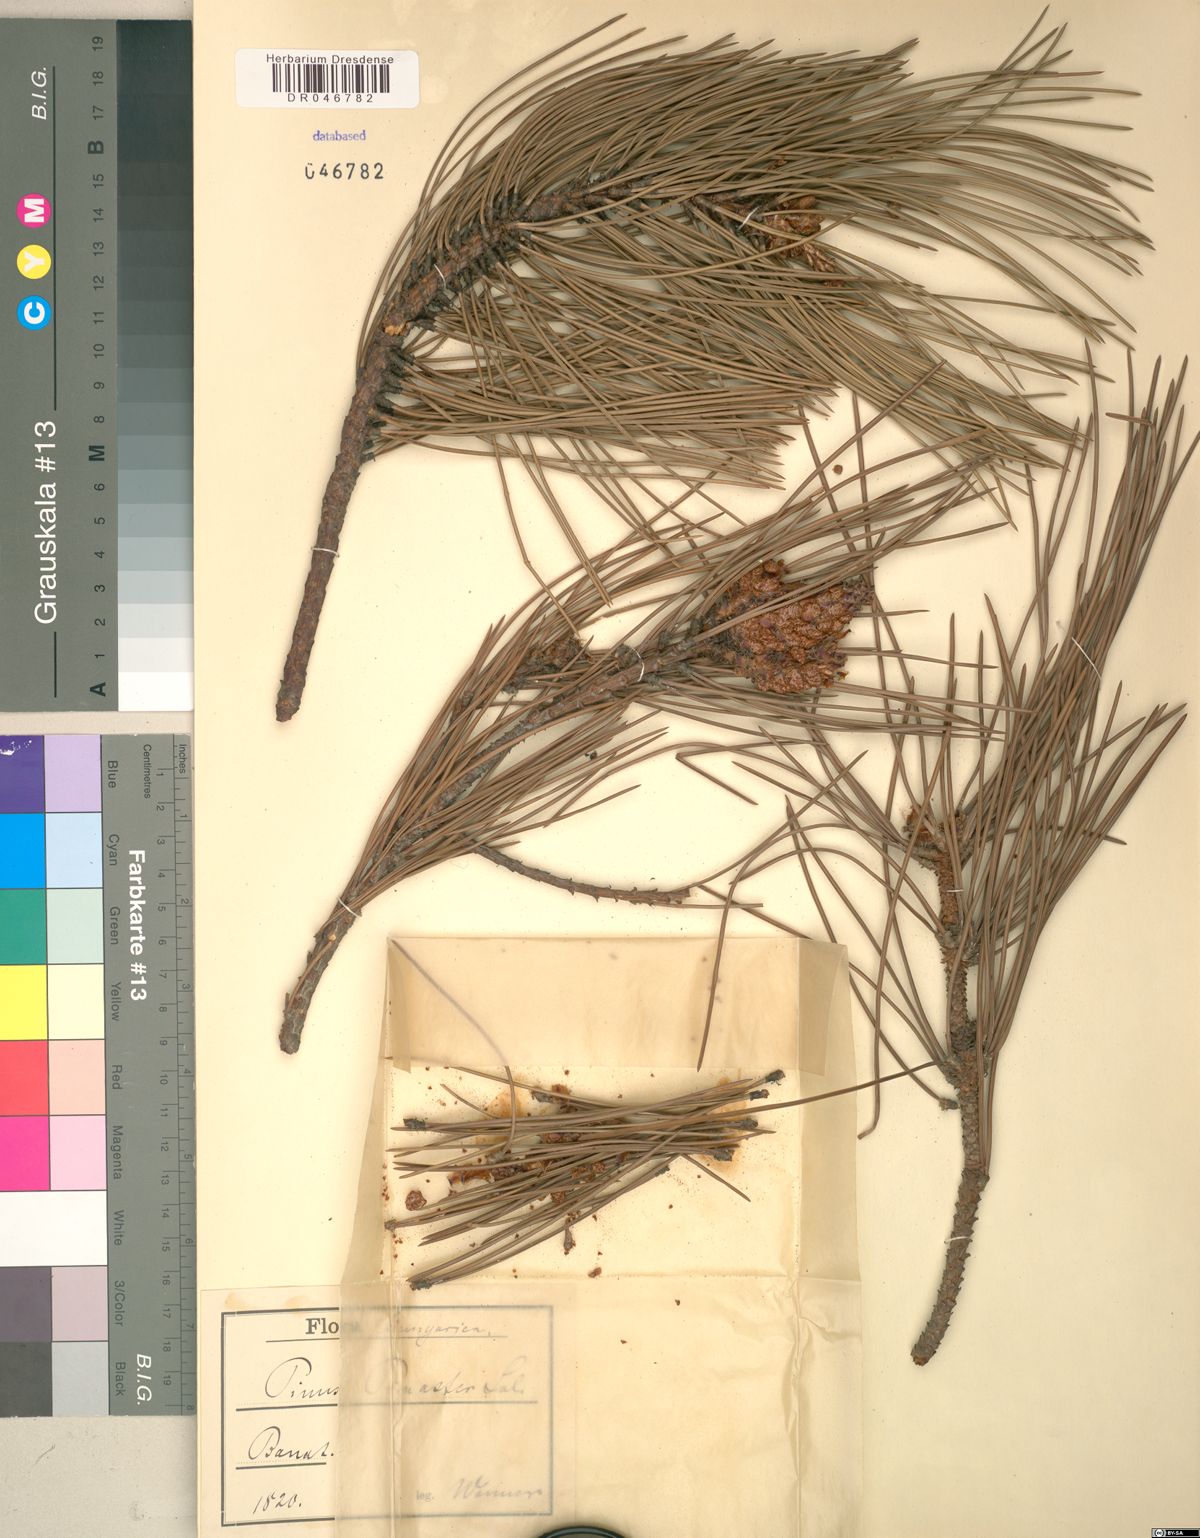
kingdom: Plantae
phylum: Tracheophyta
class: Pinopsida
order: Pinales
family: Pinaceae
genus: Pinus
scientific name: Pinus pinaster
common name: Maritime pine
